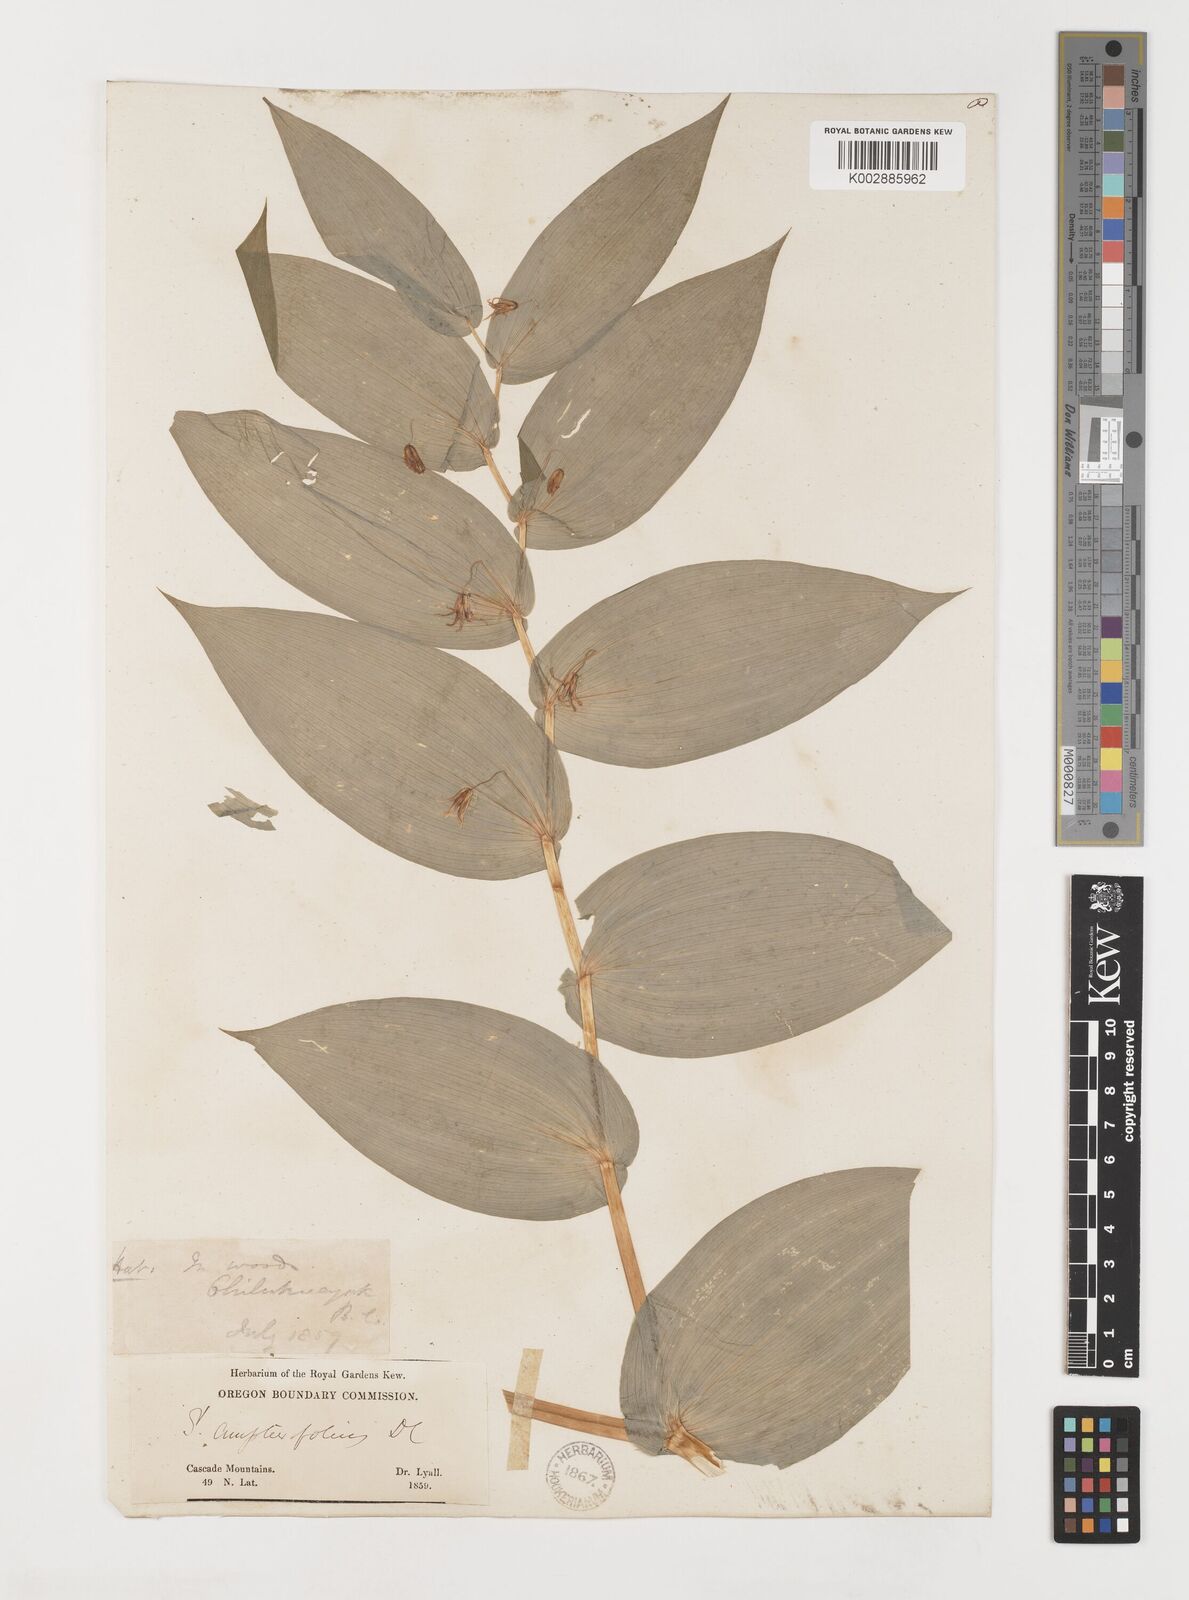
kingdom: Plantae
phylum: Tracheophyta
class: Liliopsida
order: Liliales
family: Liliaceae
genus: Streptopus
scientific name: Streptopus amplexifolius
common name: Clasp twisted stalk
